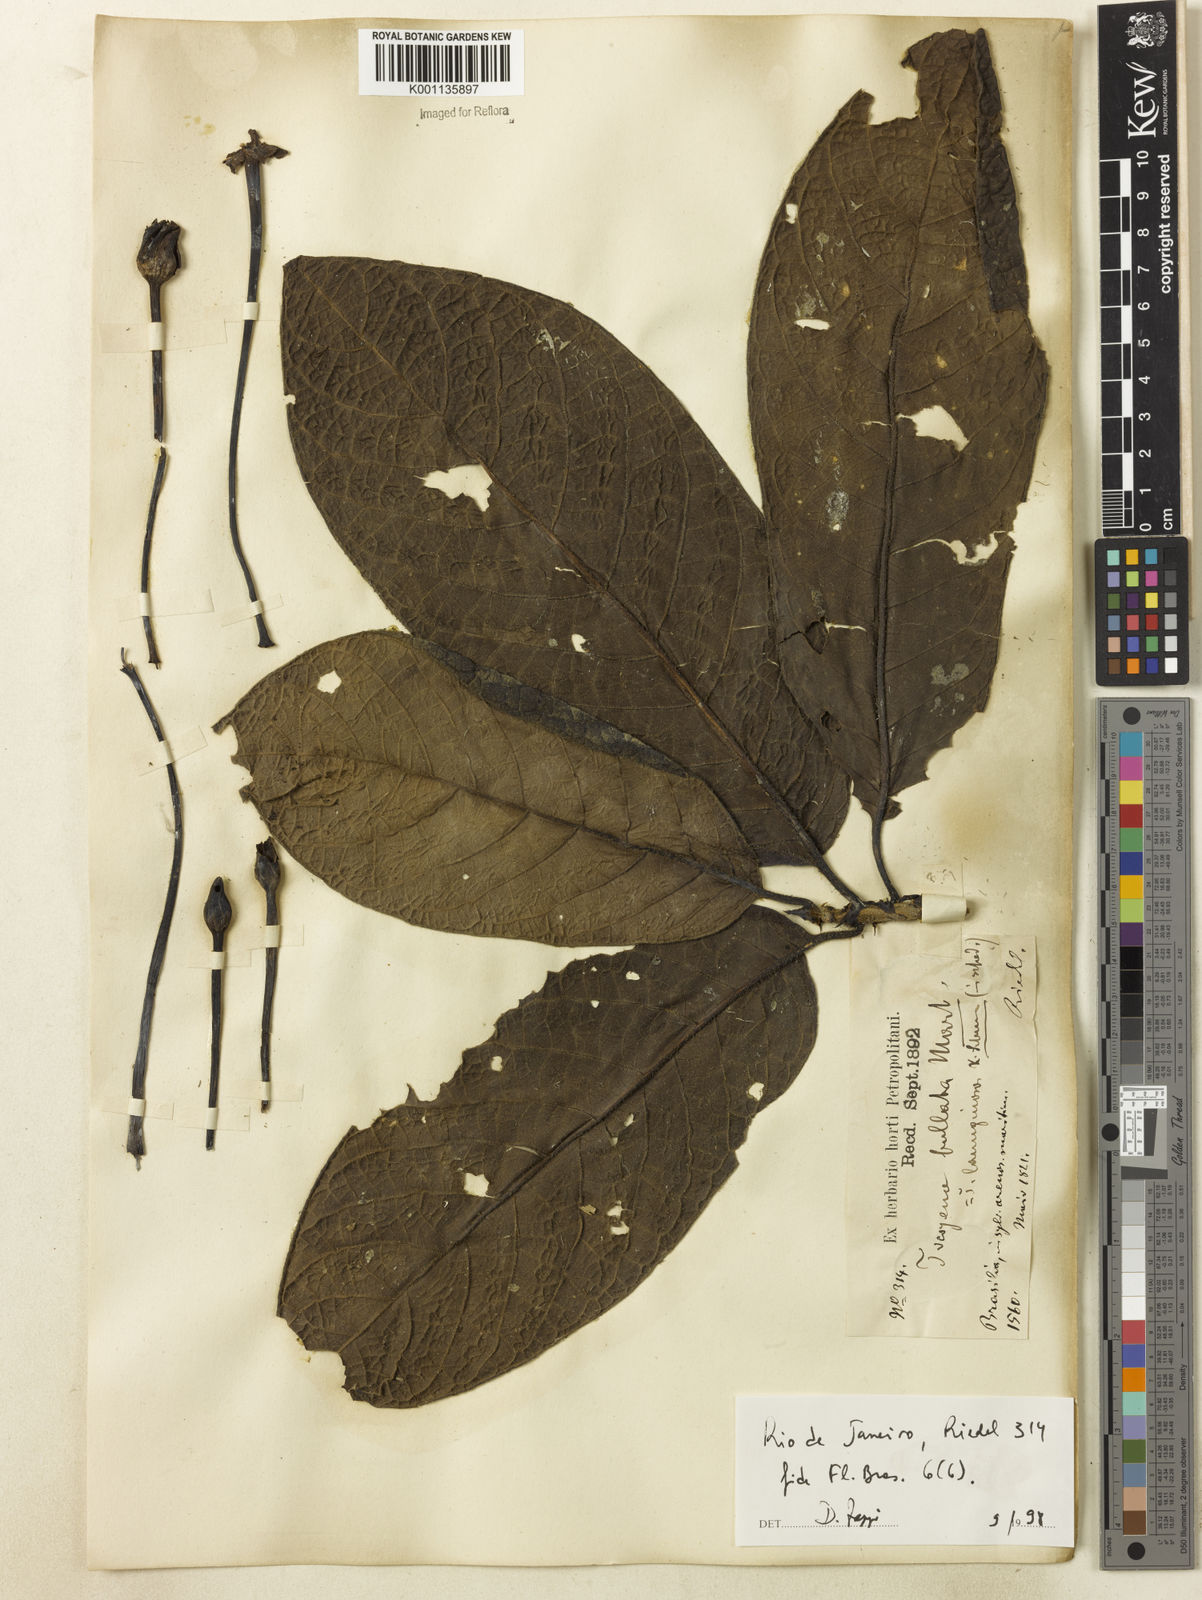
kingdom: Plantae
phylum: Tracheophyta
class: Magnoliopsida
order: Gentianales
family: Rubiaceae
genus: Tocoyena
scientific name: Tocoyena bullata
